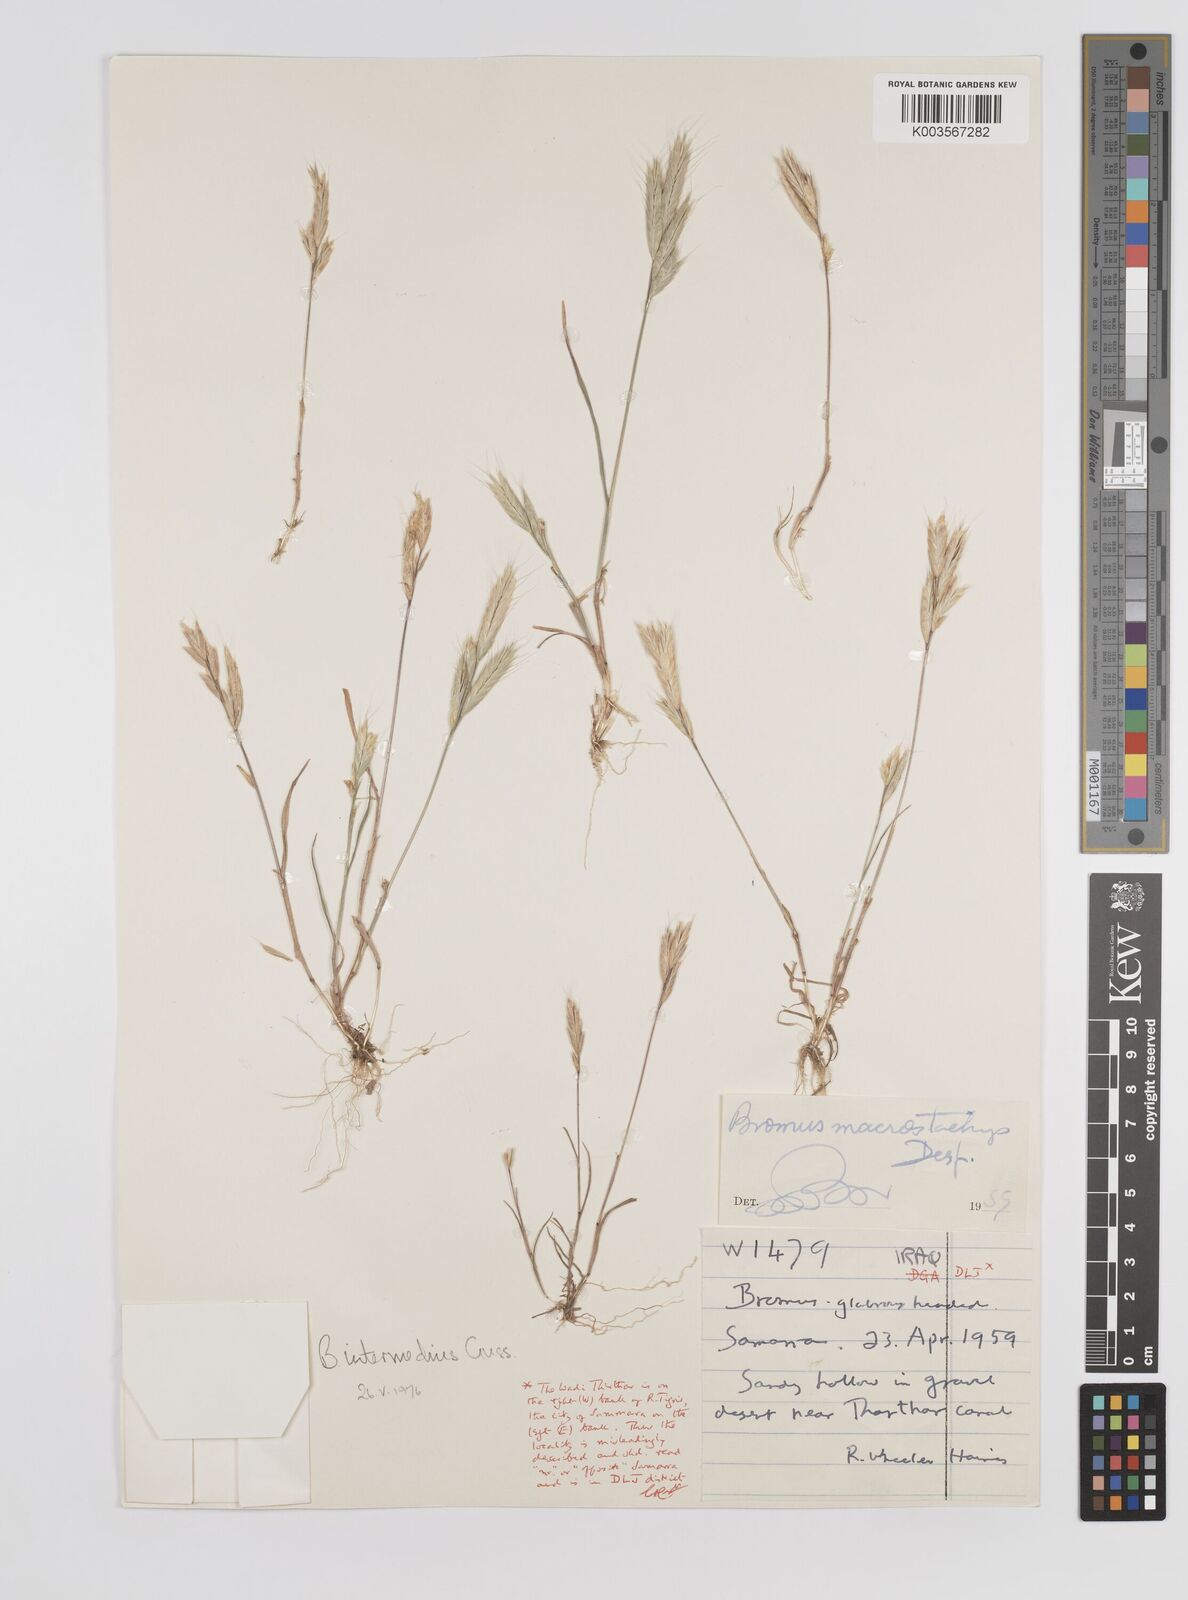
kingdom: Plantae
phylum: Tracheophyta
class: Liliopsida
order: Poales
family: Poaceae
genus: Bromus
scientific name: Bromus intermedius
